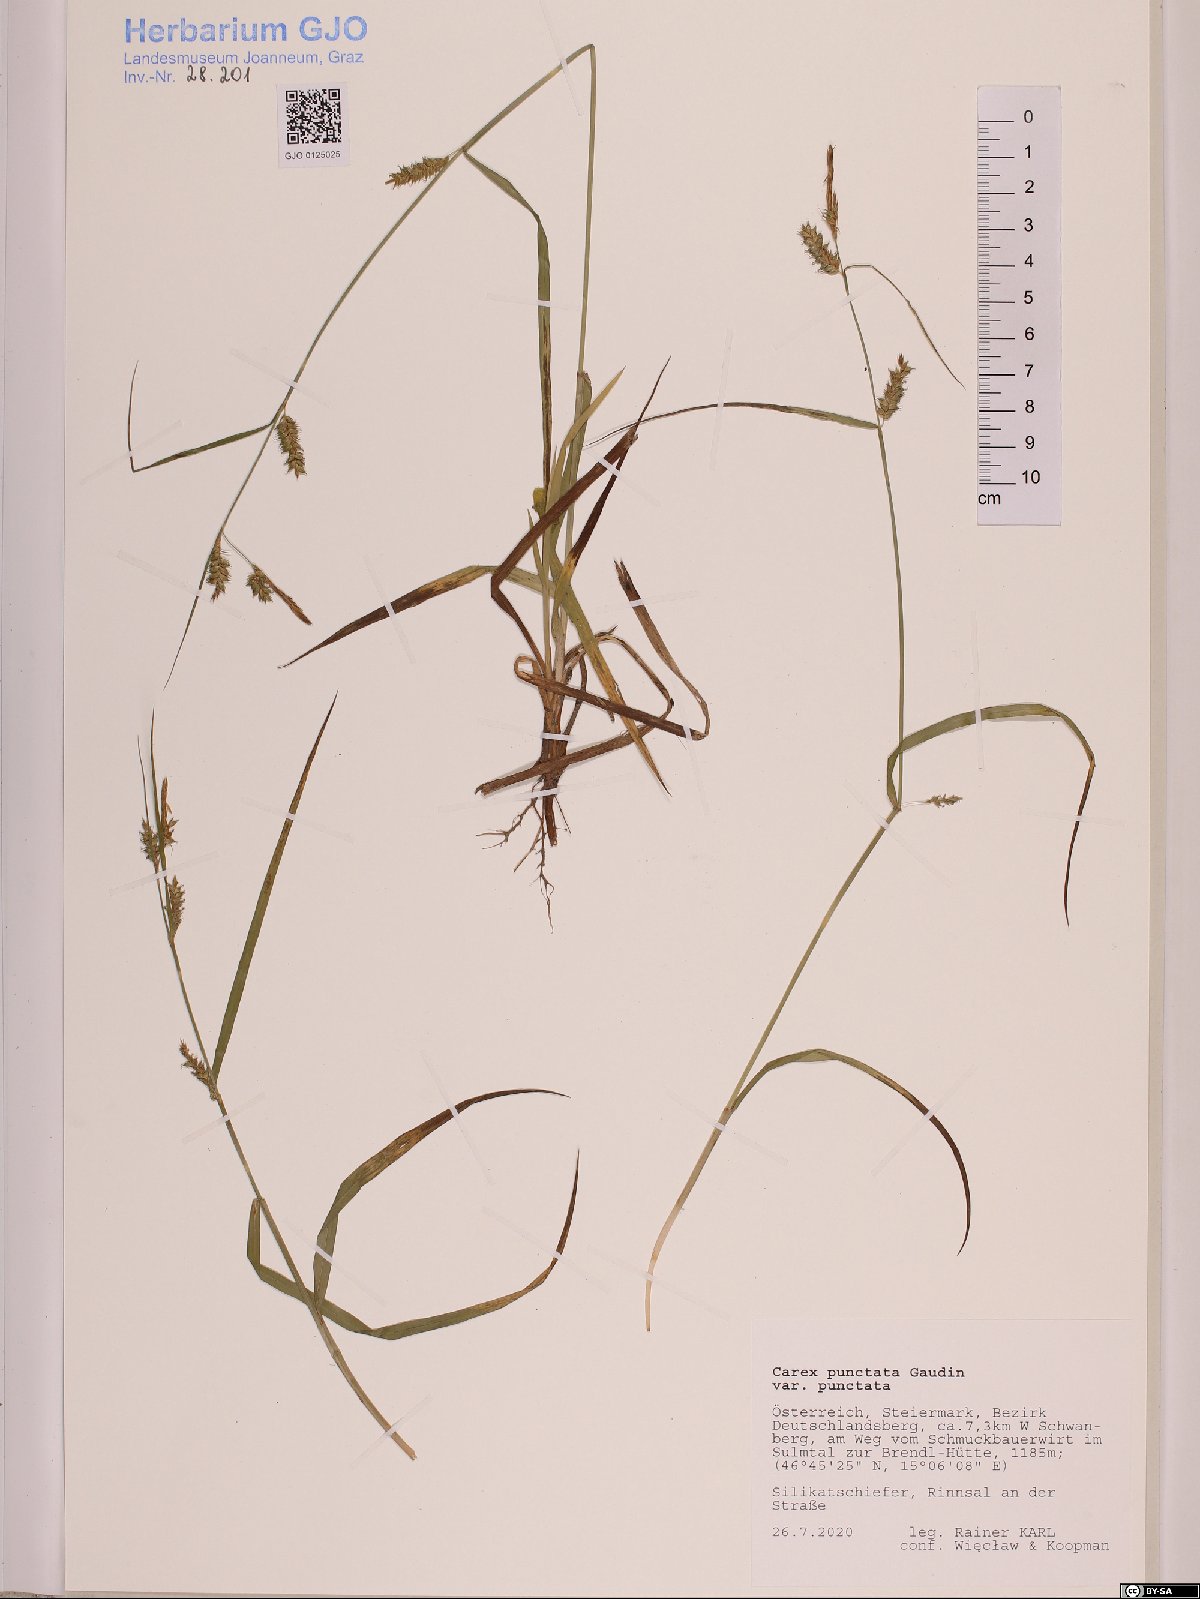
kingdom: Plantae
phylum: Tracheophyta
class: Liliopsida
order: Poales
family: Cyperaceae
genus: Carex
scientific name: Carex punctata
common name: Dotted sedge
